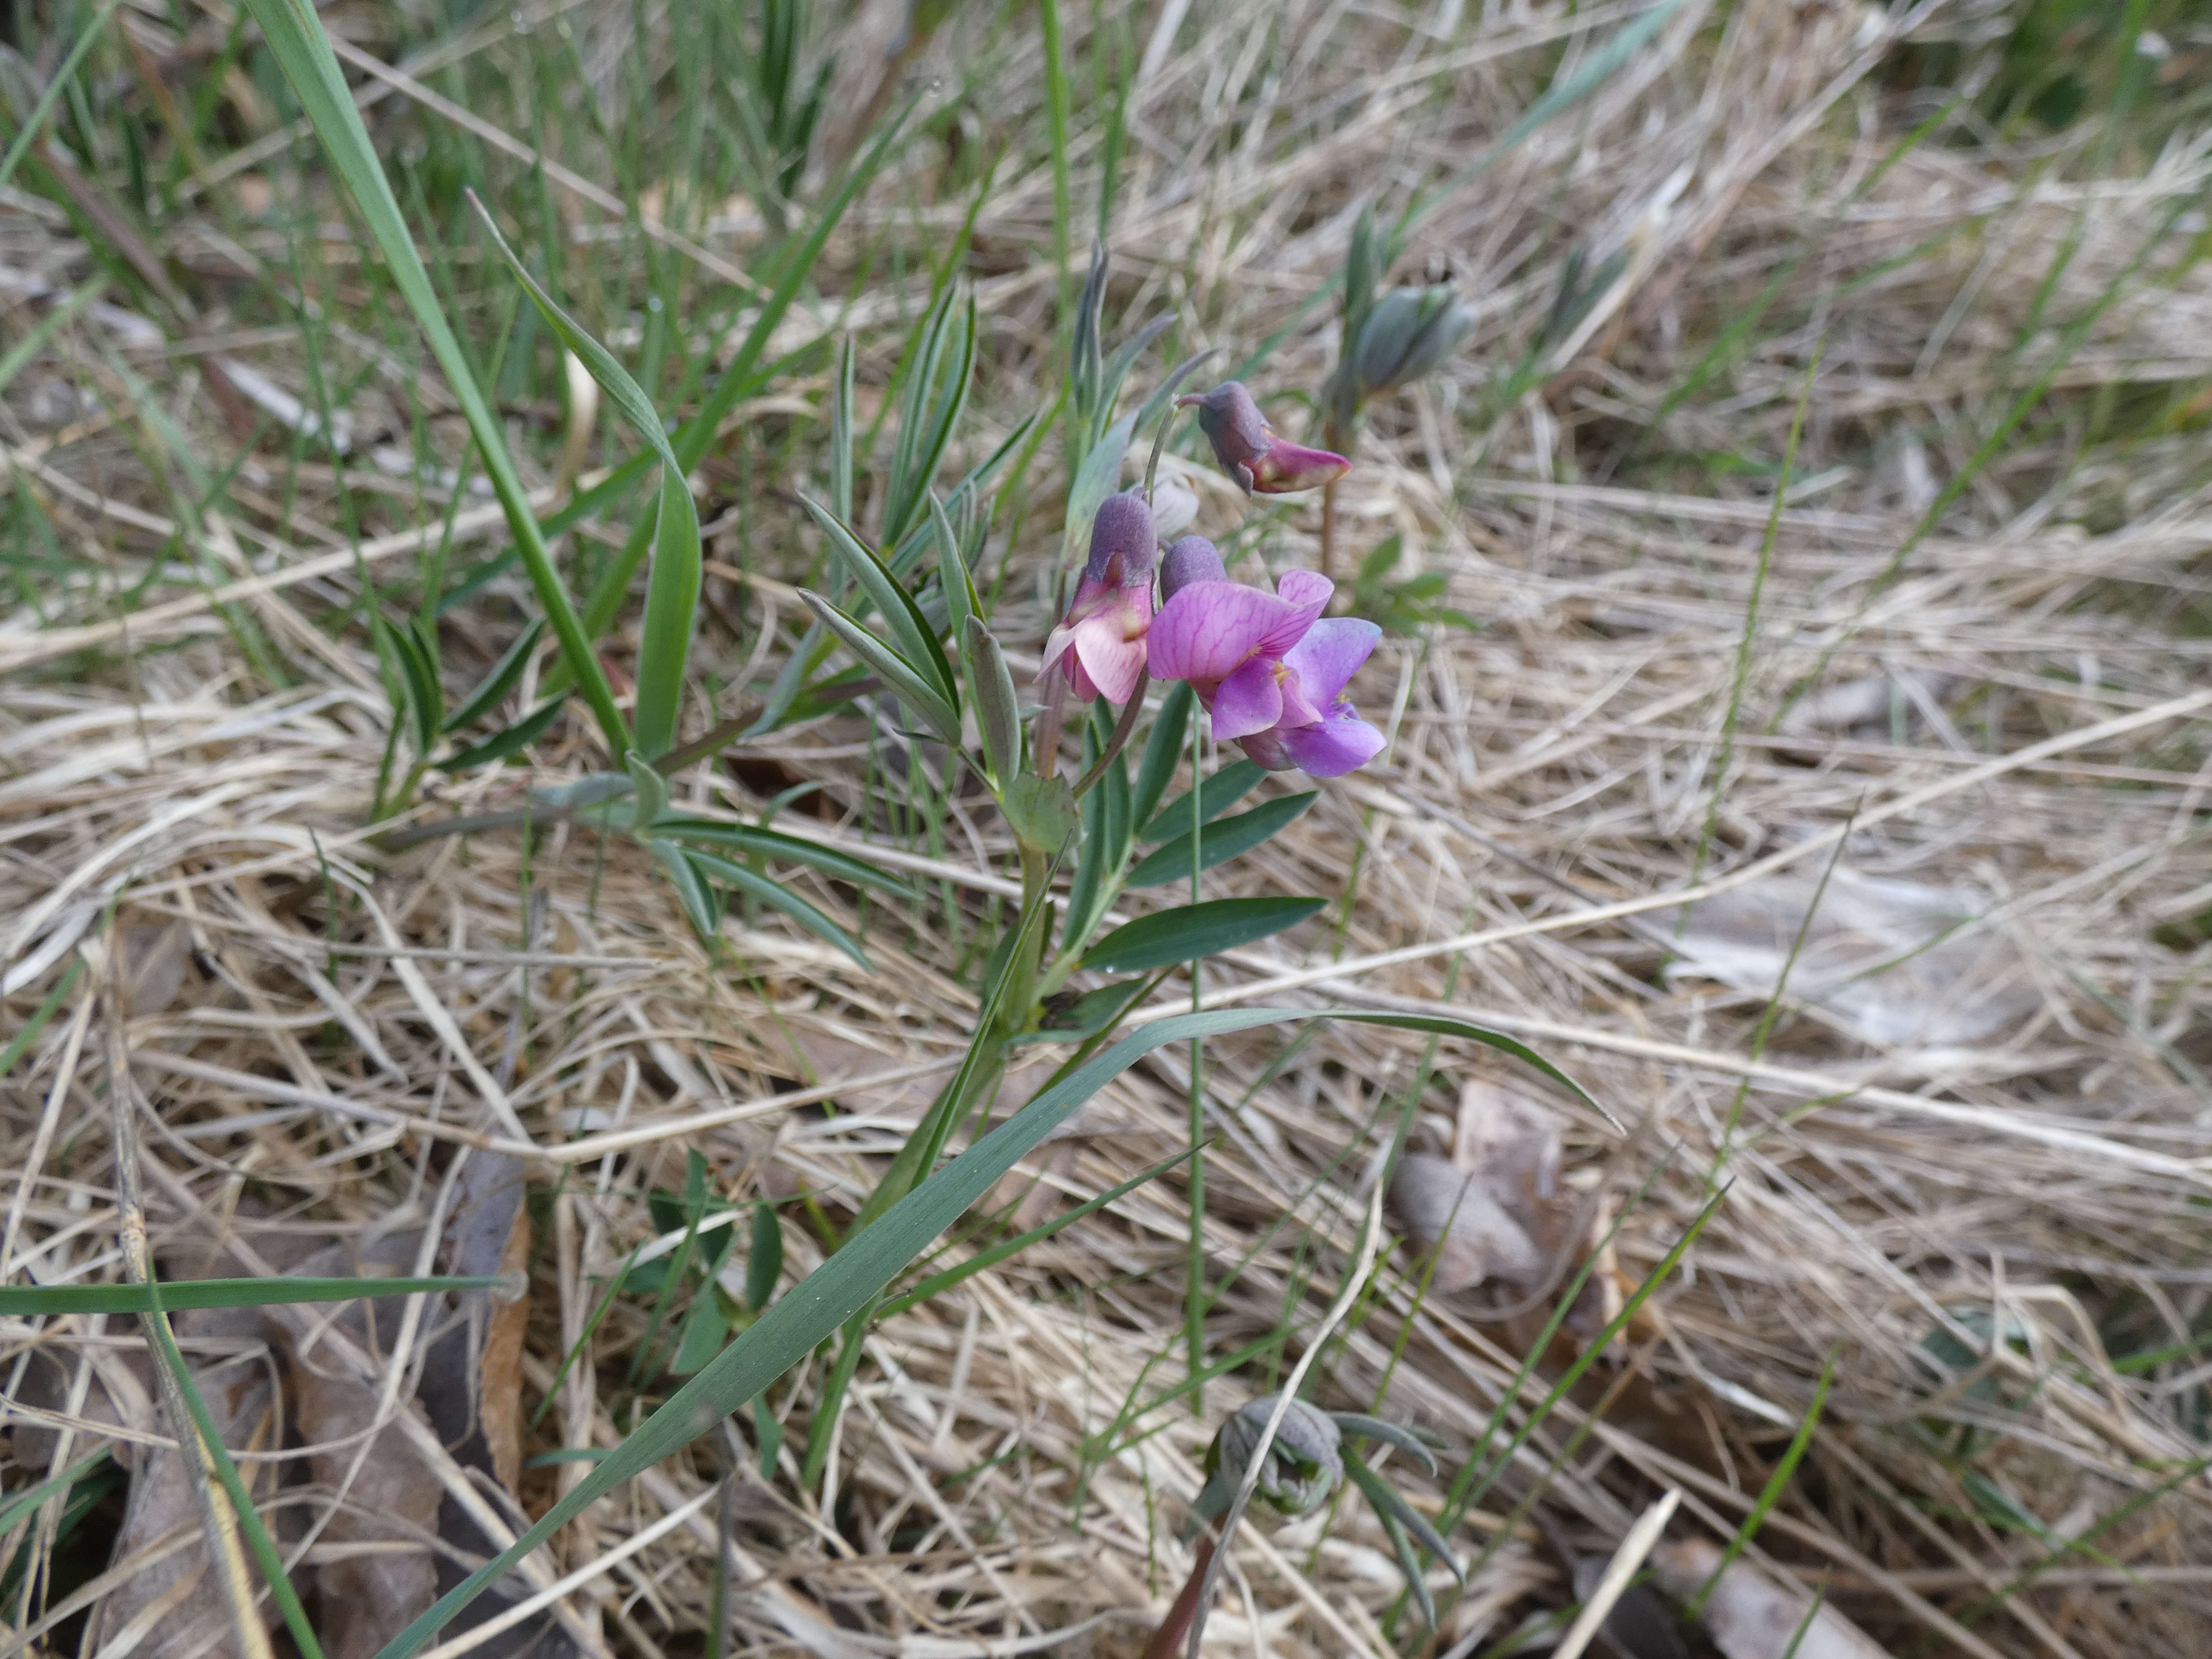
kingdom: Plantae
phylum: Tracheophyta
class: Magnoliopsida
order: Fabales
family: Fabaceae
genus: Lathyrus
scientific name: Lathyrus linifolius
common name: Krat-fladbælg
